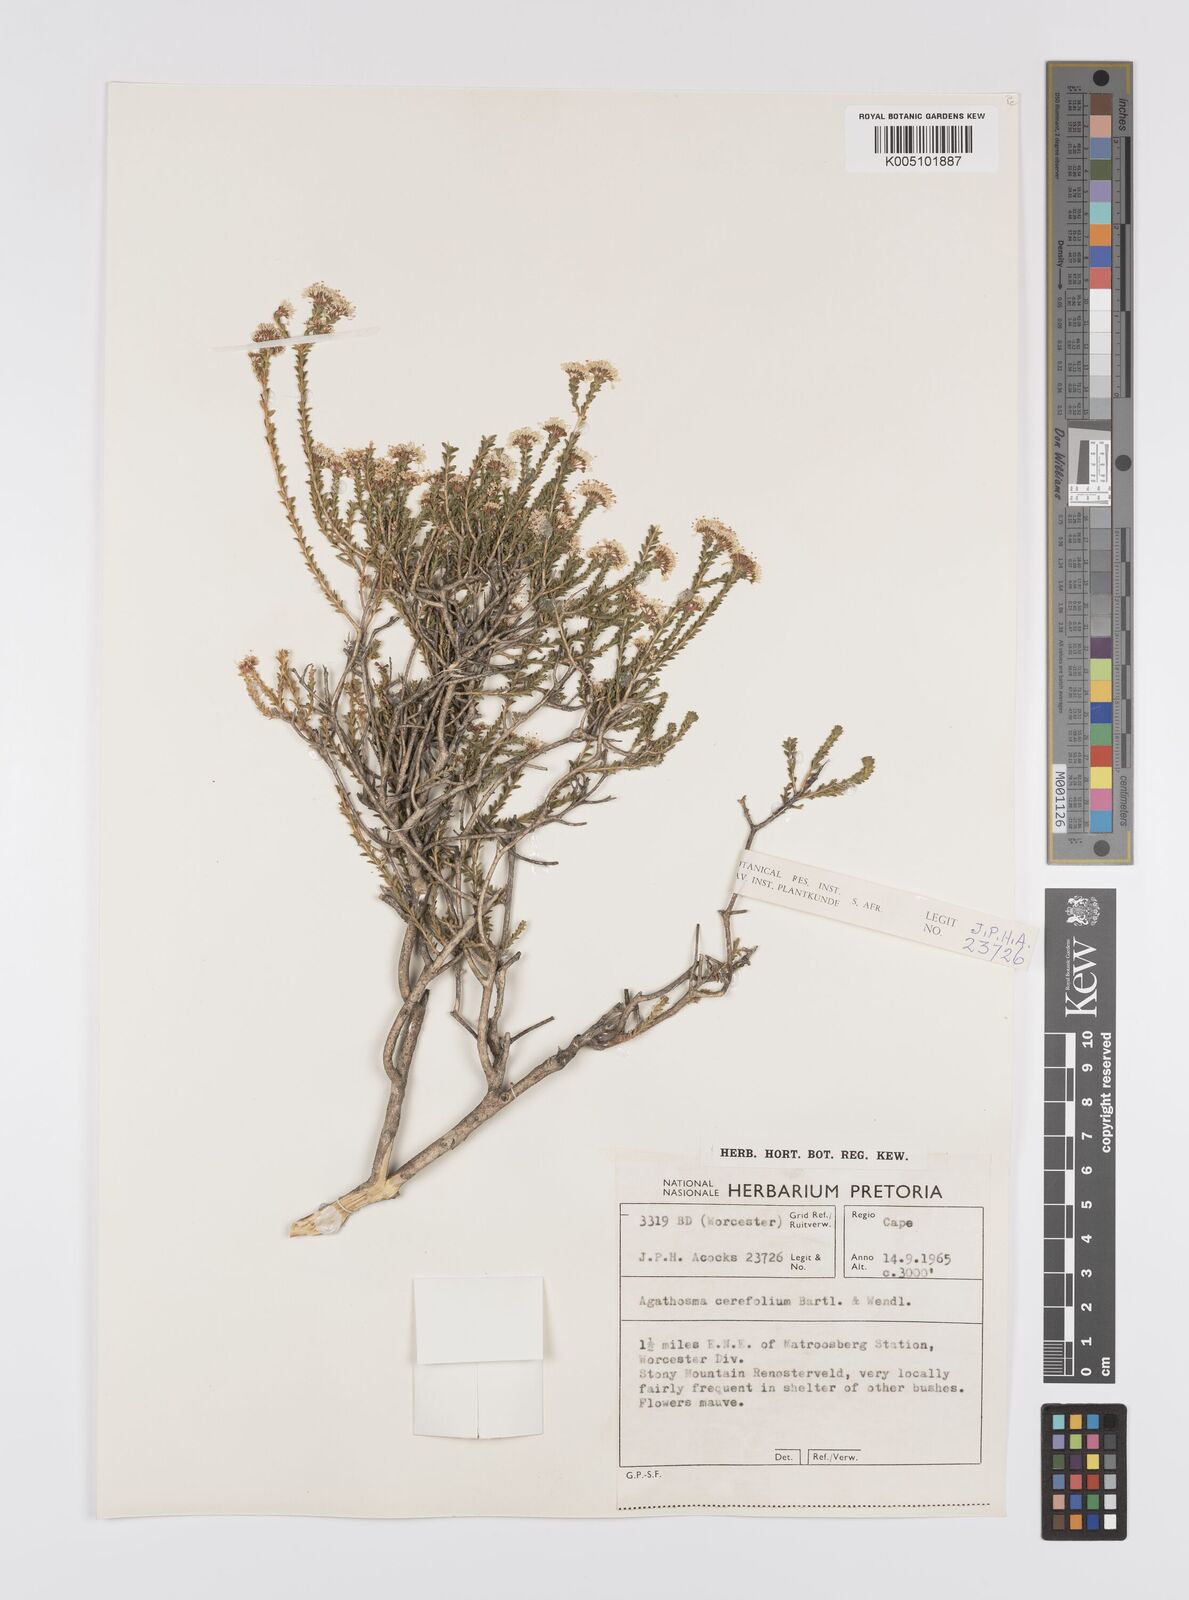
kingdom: Plantae
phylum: Tracheophyta
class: Magnoliopsida
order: Sapindales
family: Rutaceae
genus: Agathosma
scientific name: Agathosma cerefolia
